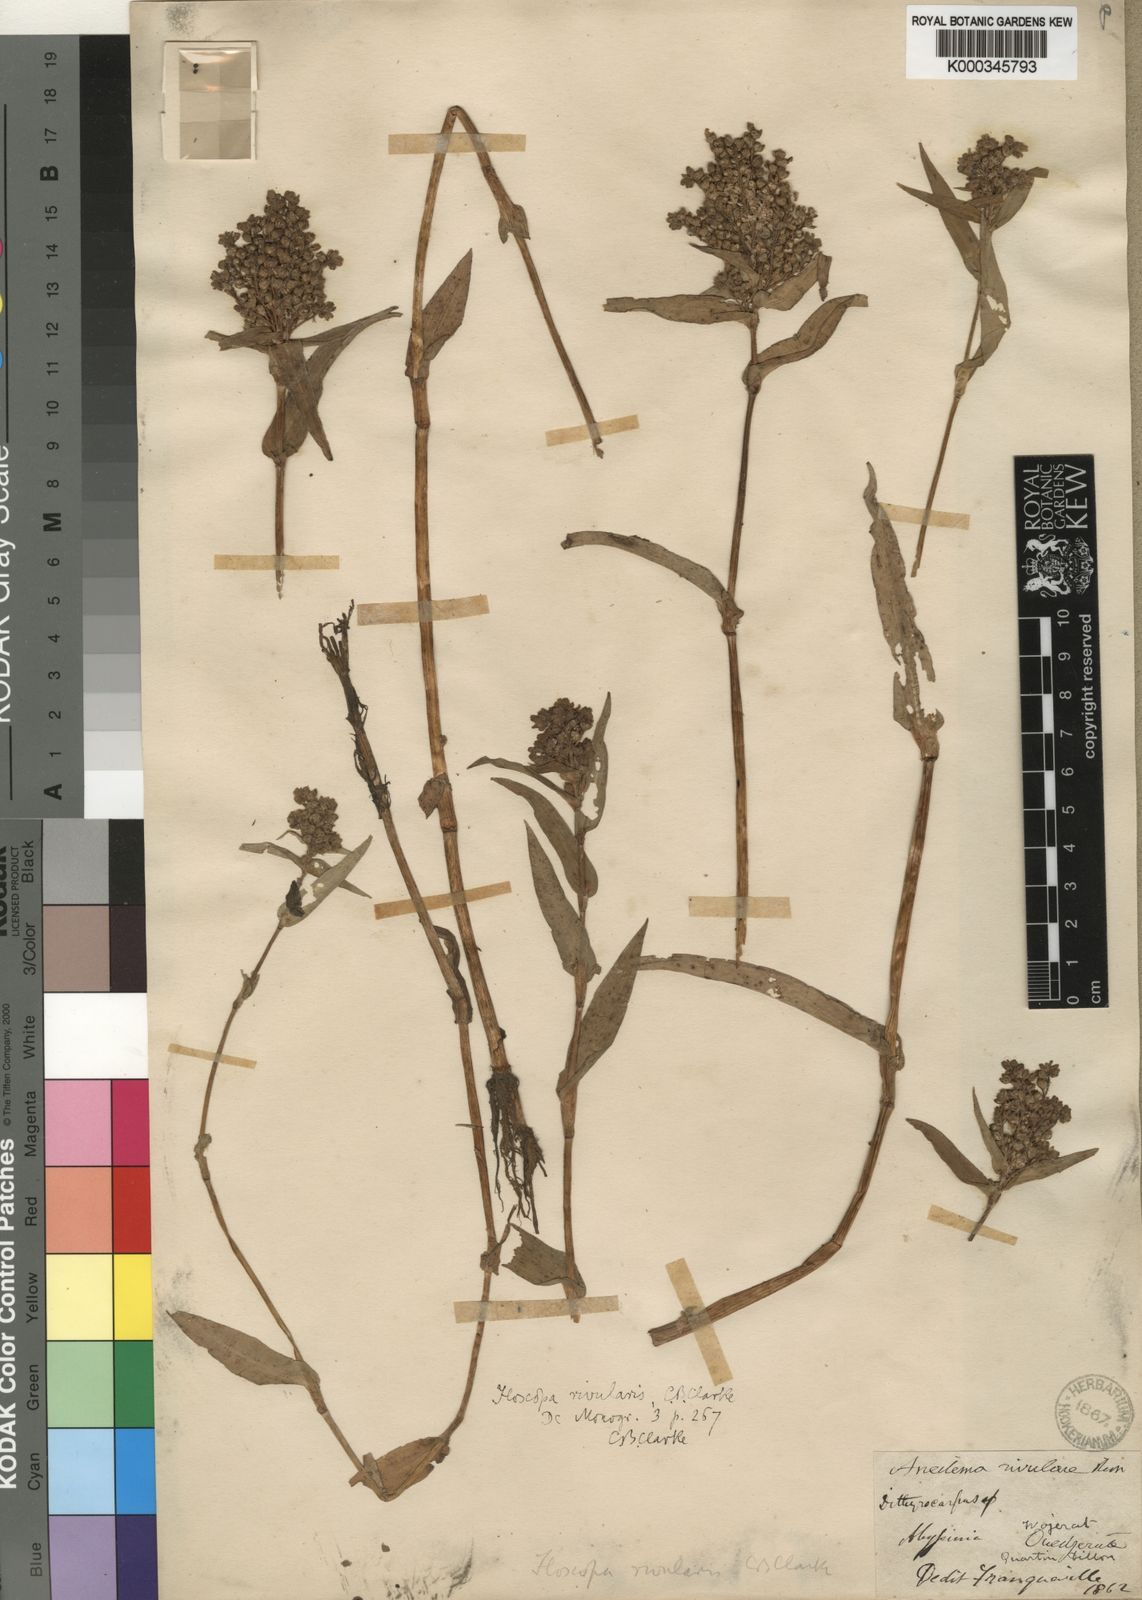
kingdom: Plantae
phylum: Tracheophyta
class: Liliopsida
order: Commelinales
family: Commelinaceae
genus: Floscopa
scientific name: Floscopa glomerata
